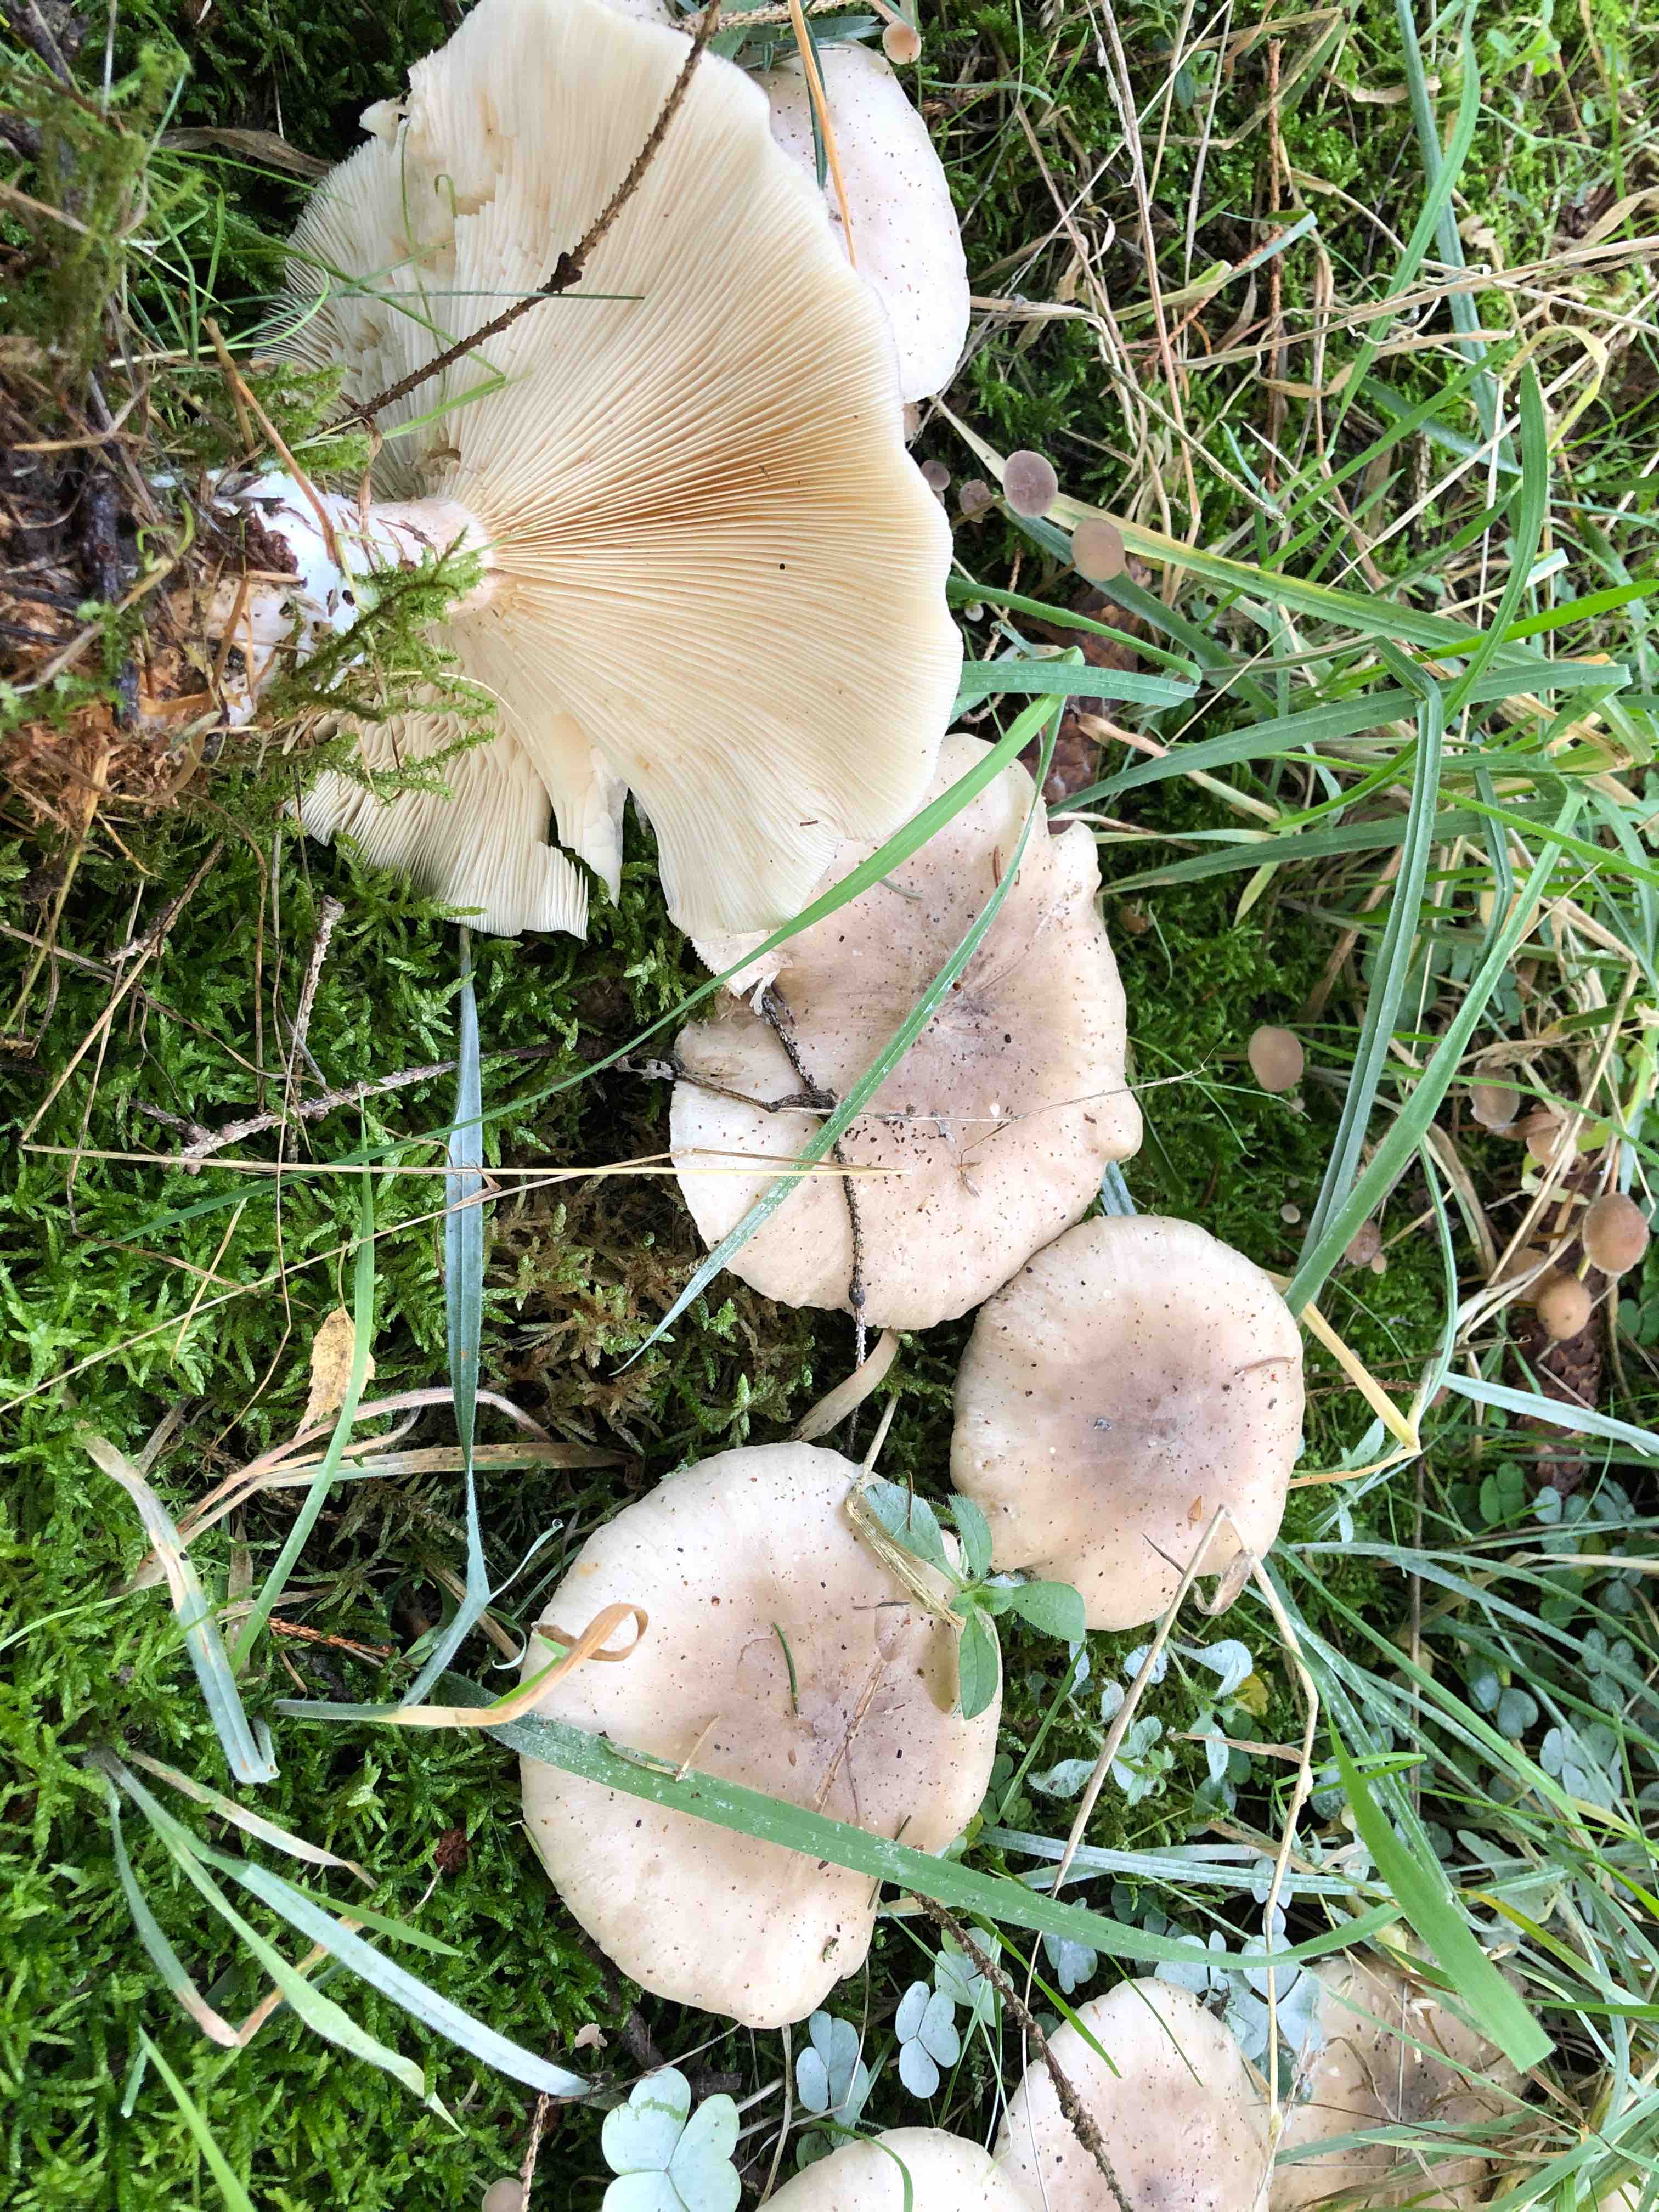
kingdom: Fungi
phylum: Basidiomycota
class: Agaricomycetes
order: Agaricales
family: Tricholomataceae
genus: Clitocybe
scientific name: Clitocybe nebularis
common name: tåge-tragthat
